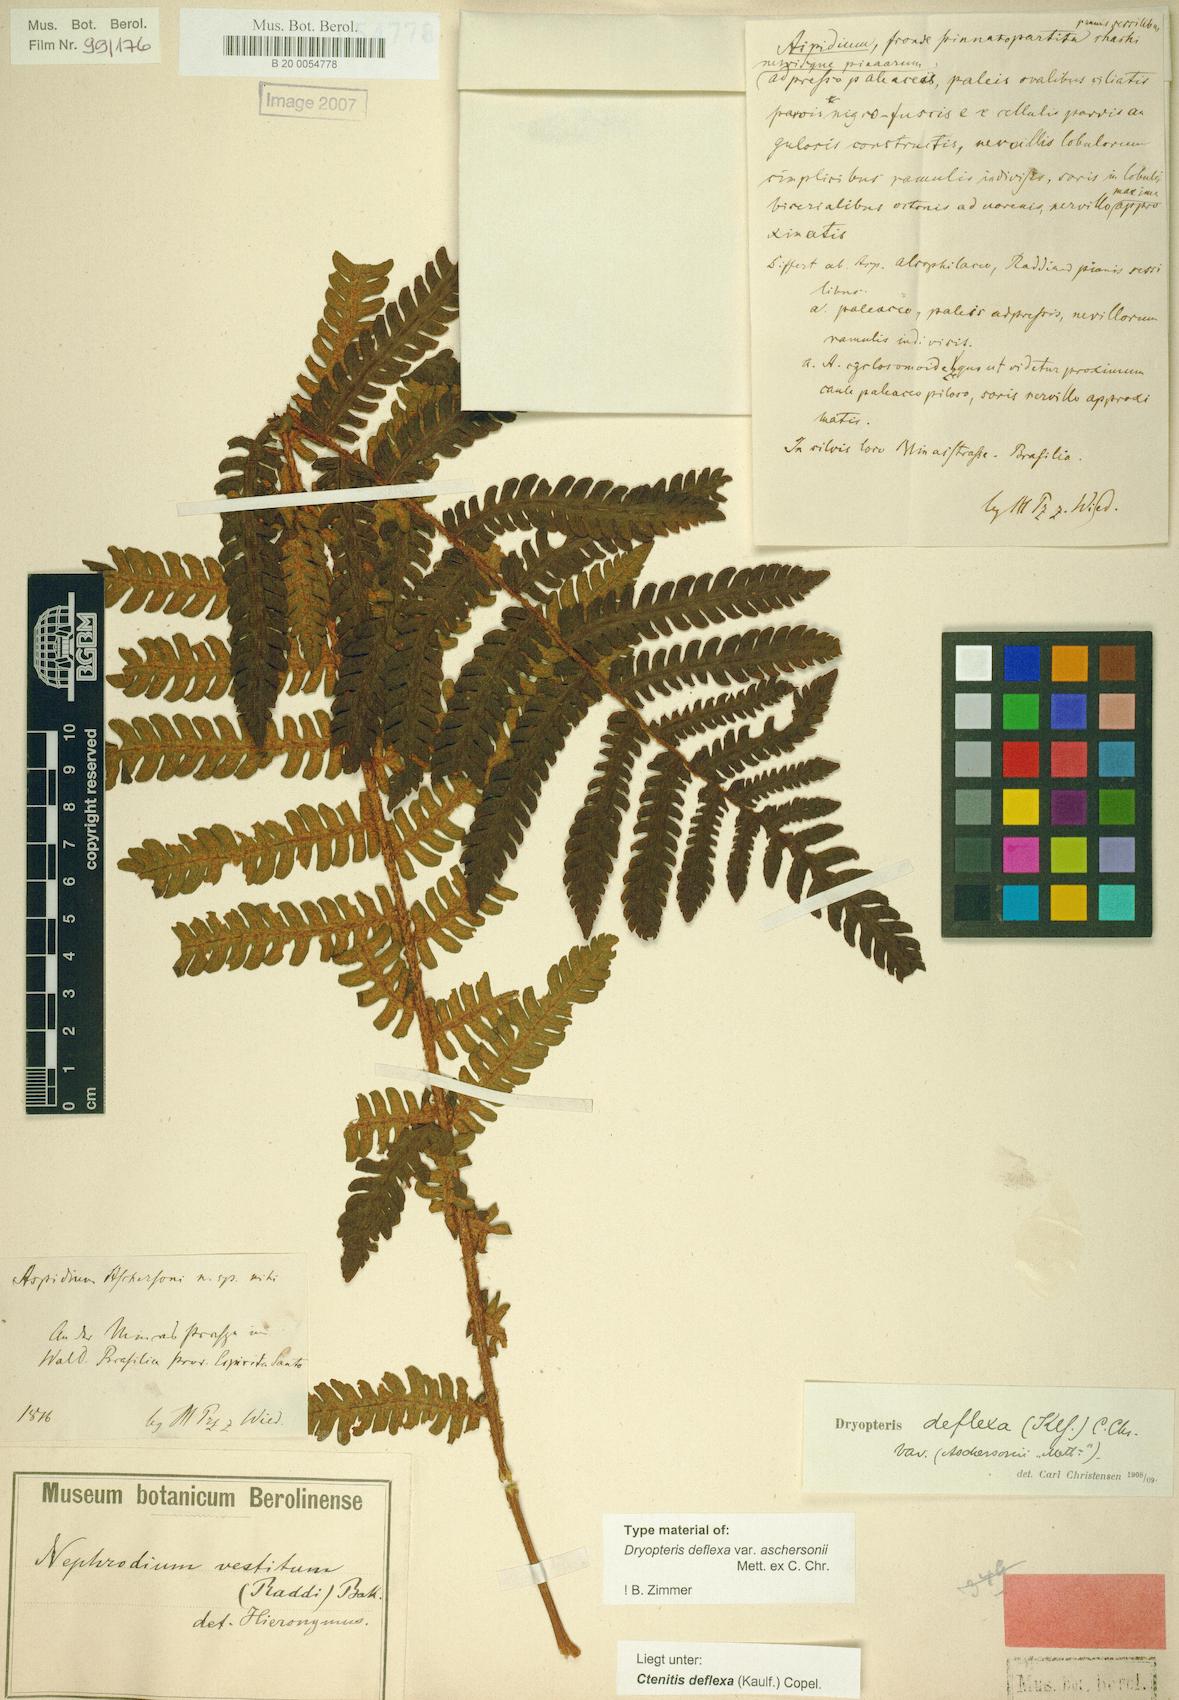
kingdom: Plantae
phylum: Tracheophyta
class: Polypodiopsida
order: Polypodiales
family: Dryopteridaceae
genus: Ctenitis
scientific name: Ctenitis deflexa
